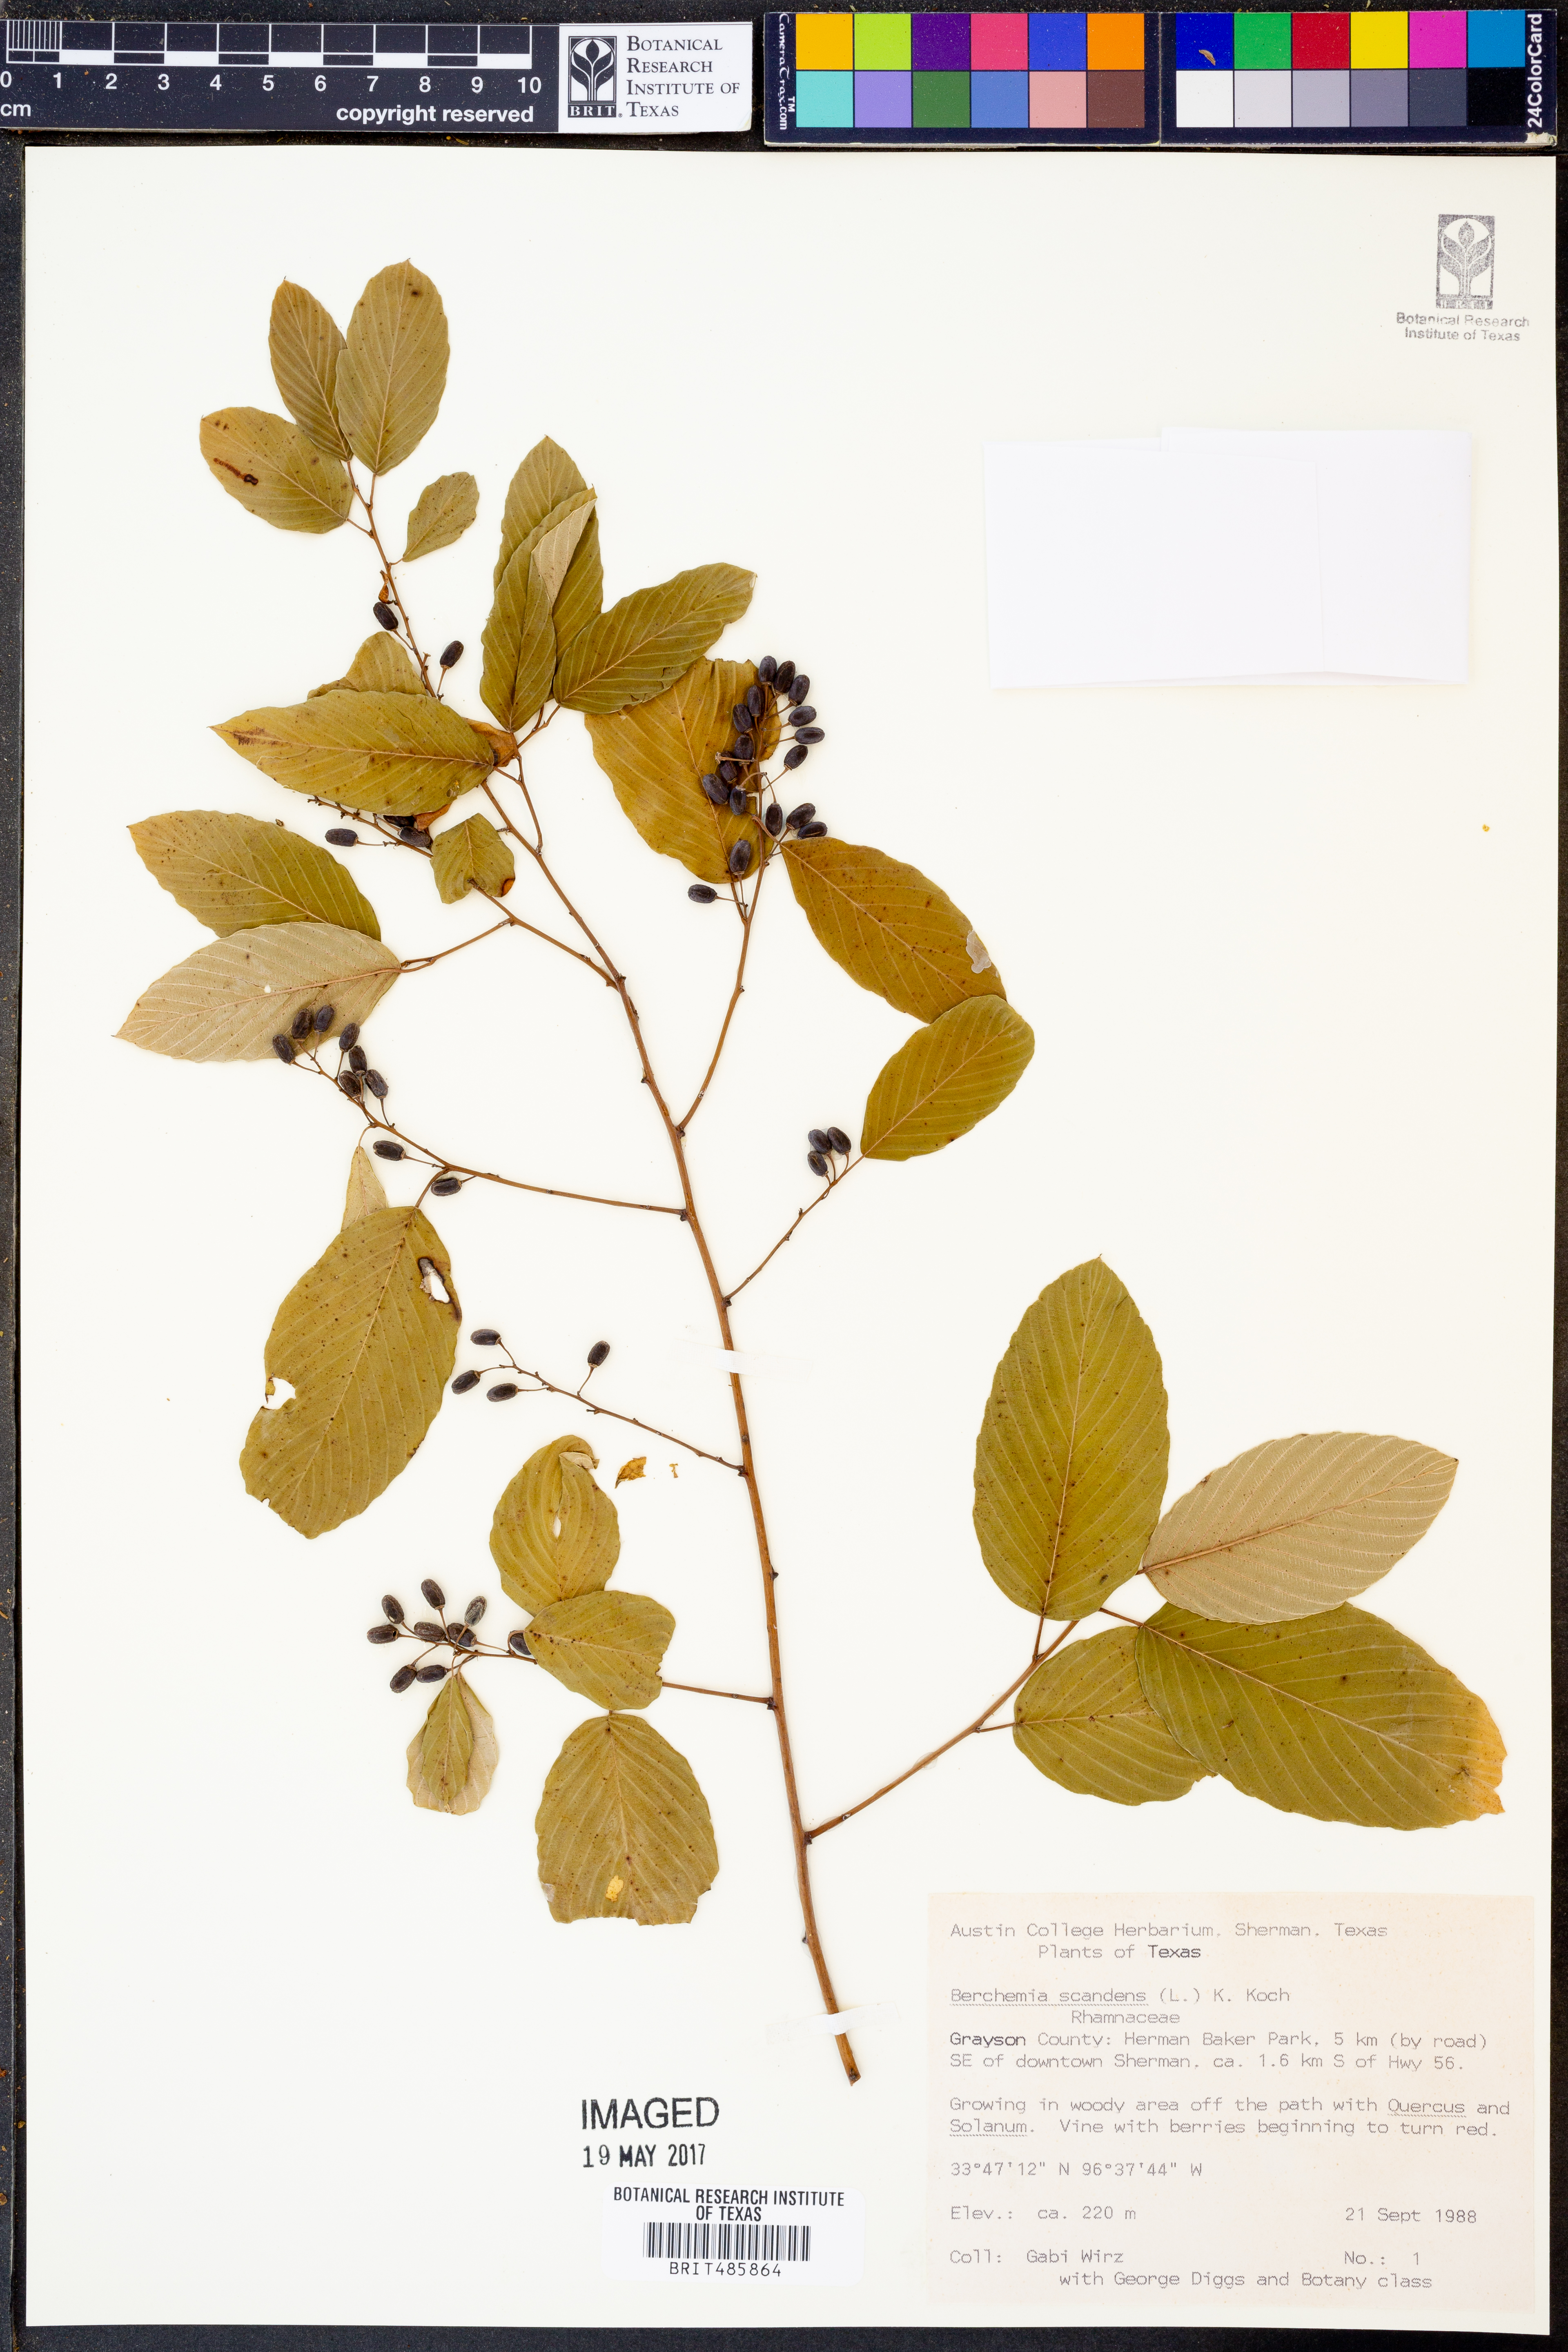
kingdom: Plantae
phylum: Tracheophyta
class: Magnoliopsida
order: Rosales
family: Rhamnaceae
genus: Berchemia
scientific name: Berchemia scandens
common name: Supplejack
